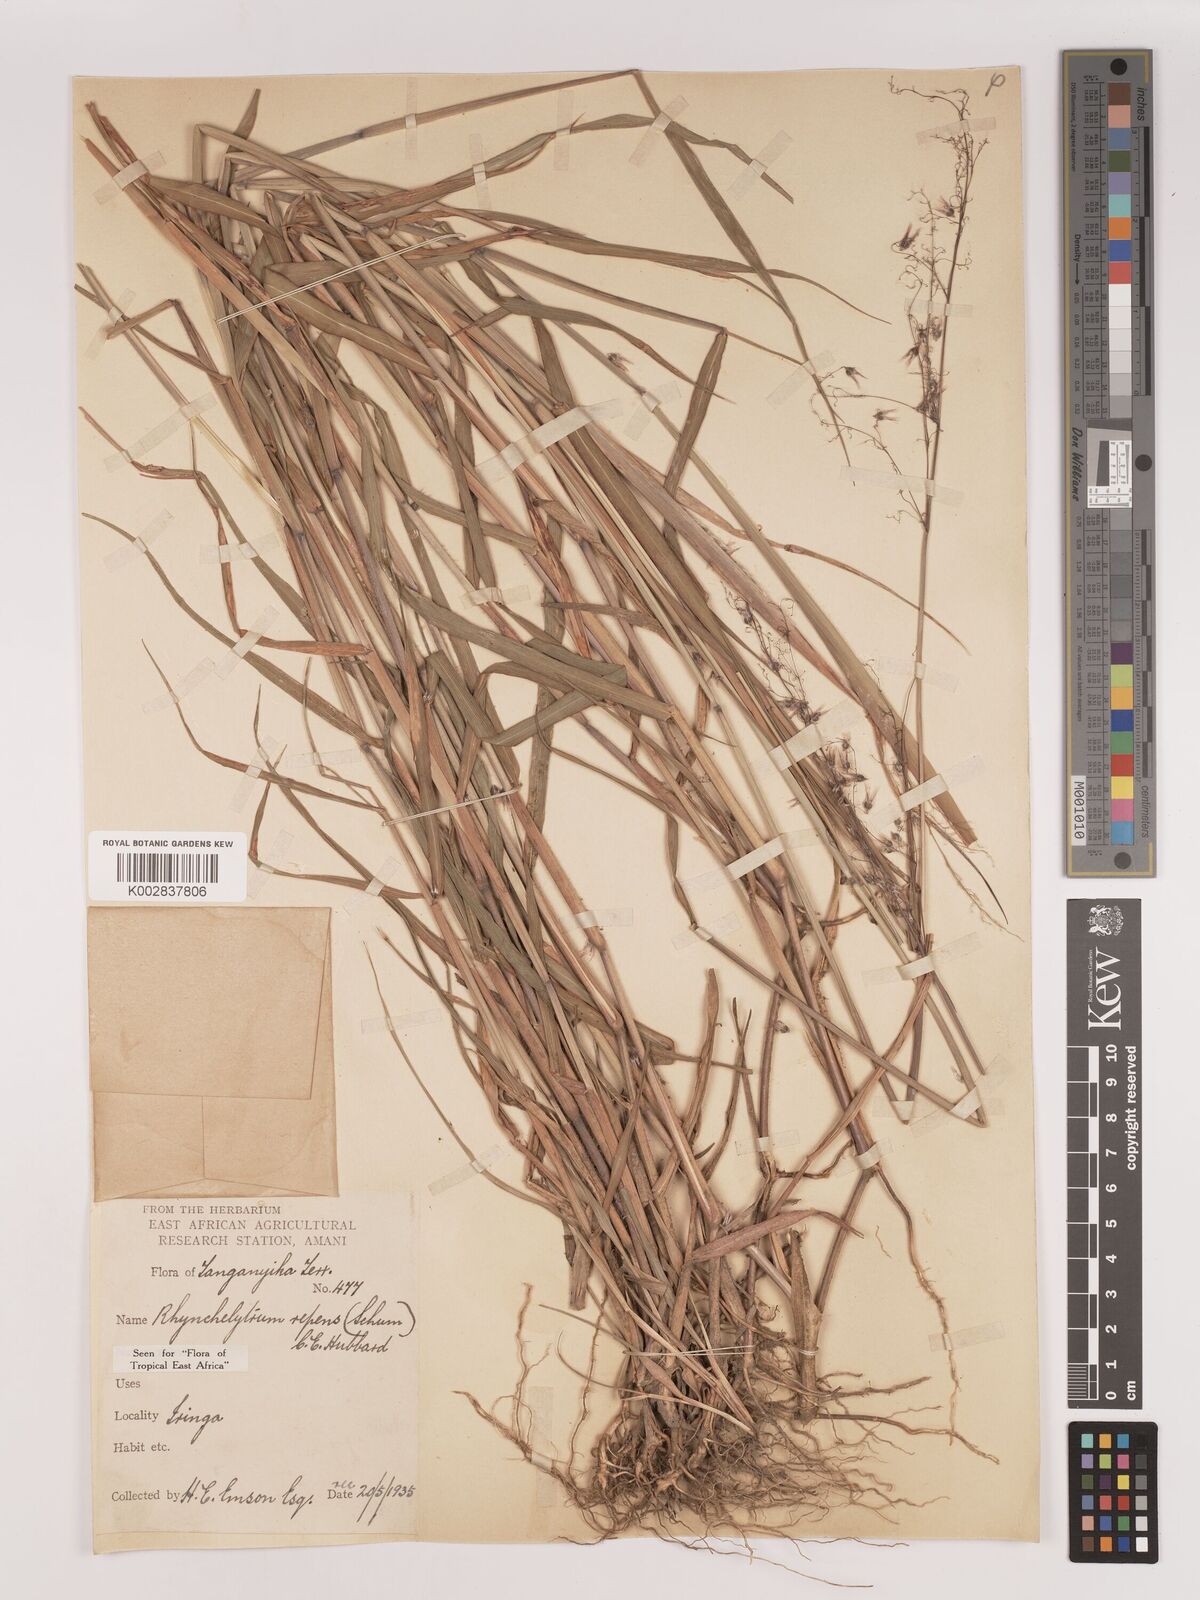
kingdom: Plantae
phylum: Tracheophyta
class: Liliopsida
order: Poales
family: Poaceae
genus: Melinis
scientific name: Melinis repens
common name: Rose natal grass
